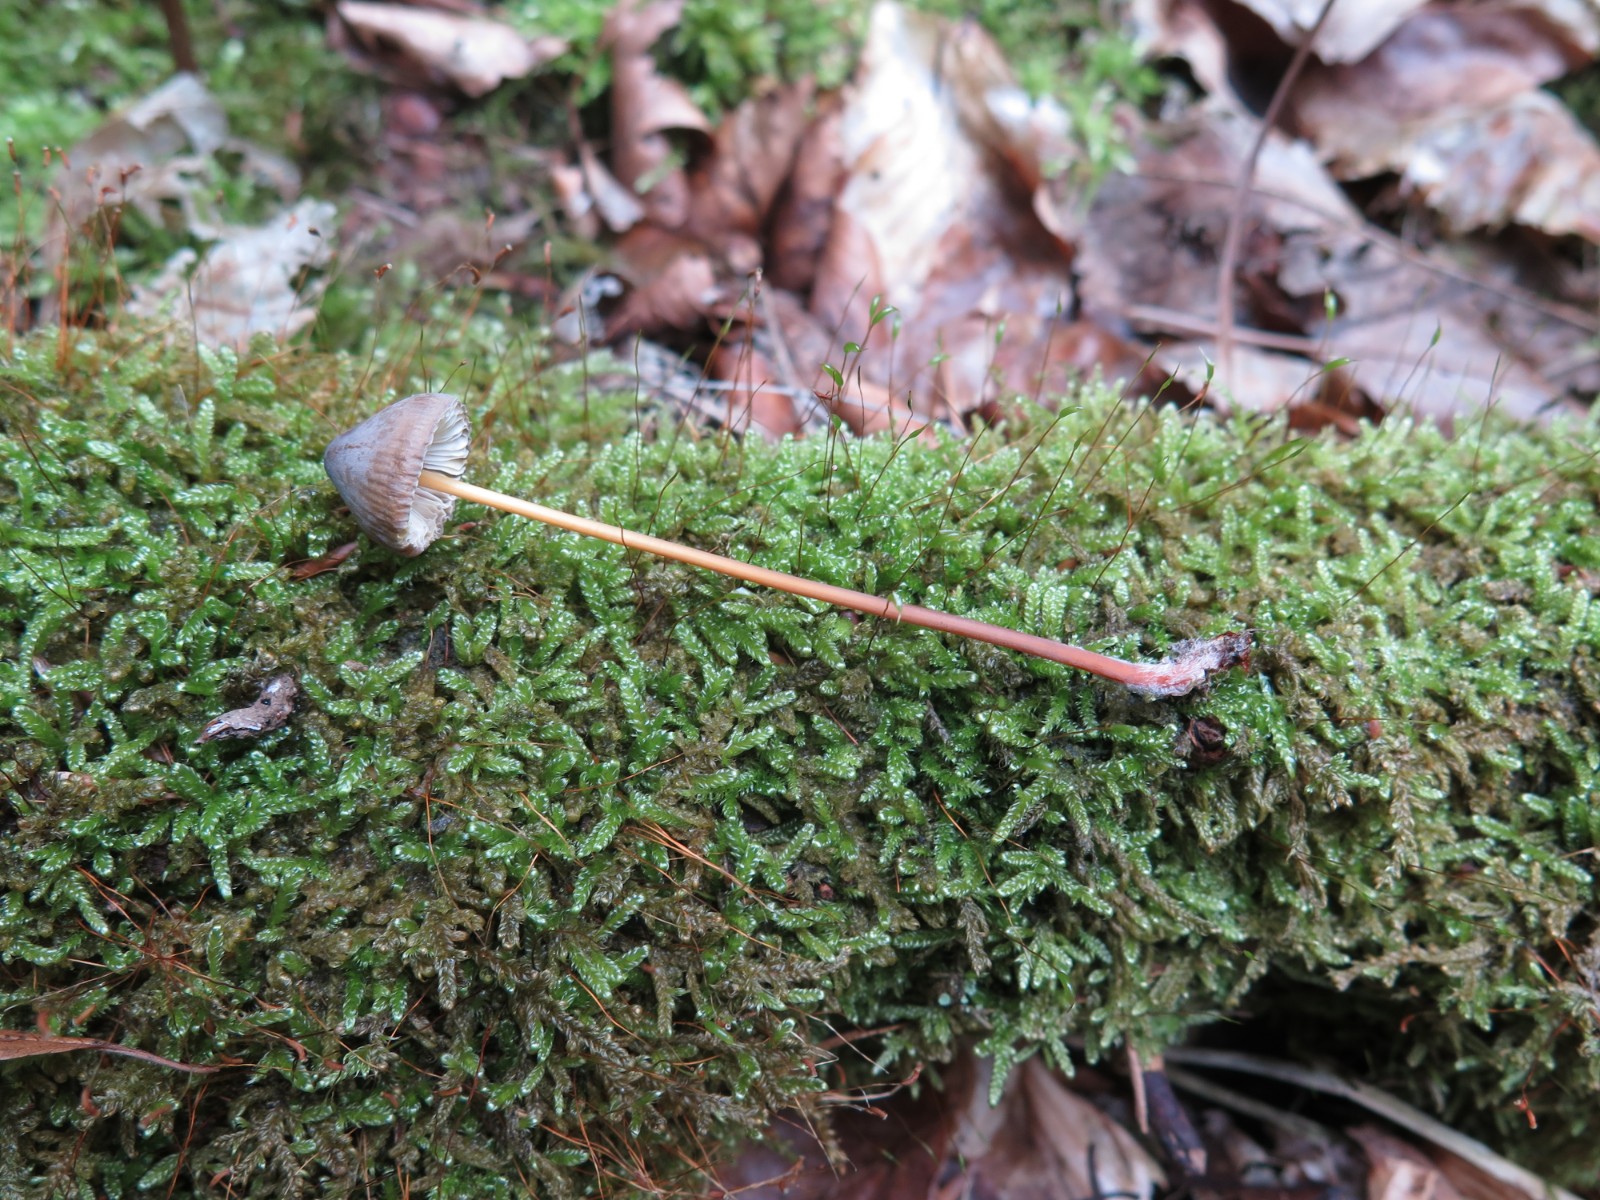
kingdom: Fungi
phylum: Basidiomycota
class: Agaricomycetes
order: Agaricales
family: Mycenaceae
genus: Mycena
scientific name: Mycena crocata
